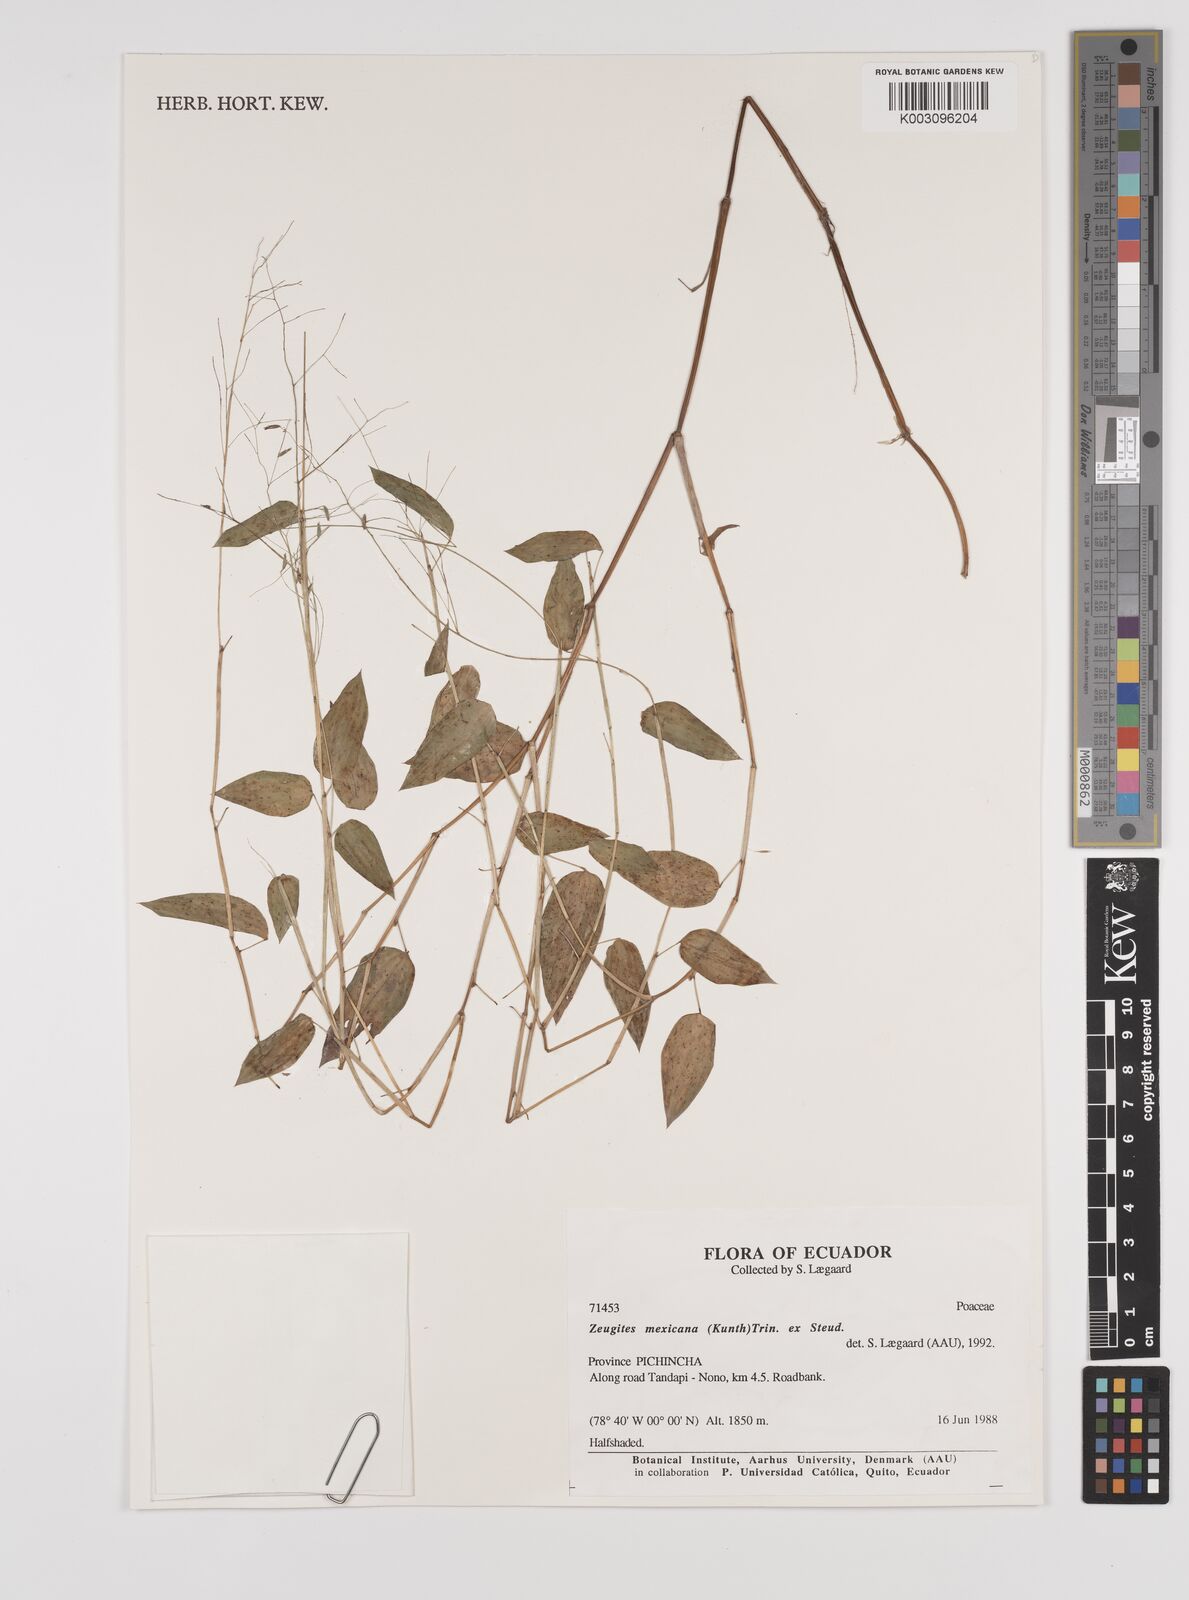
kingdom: Plantae
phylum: Tracheophyta
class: Liliopsida
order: Poales
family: Poaceae
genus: Zeugites
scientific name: Zeugites americanus
